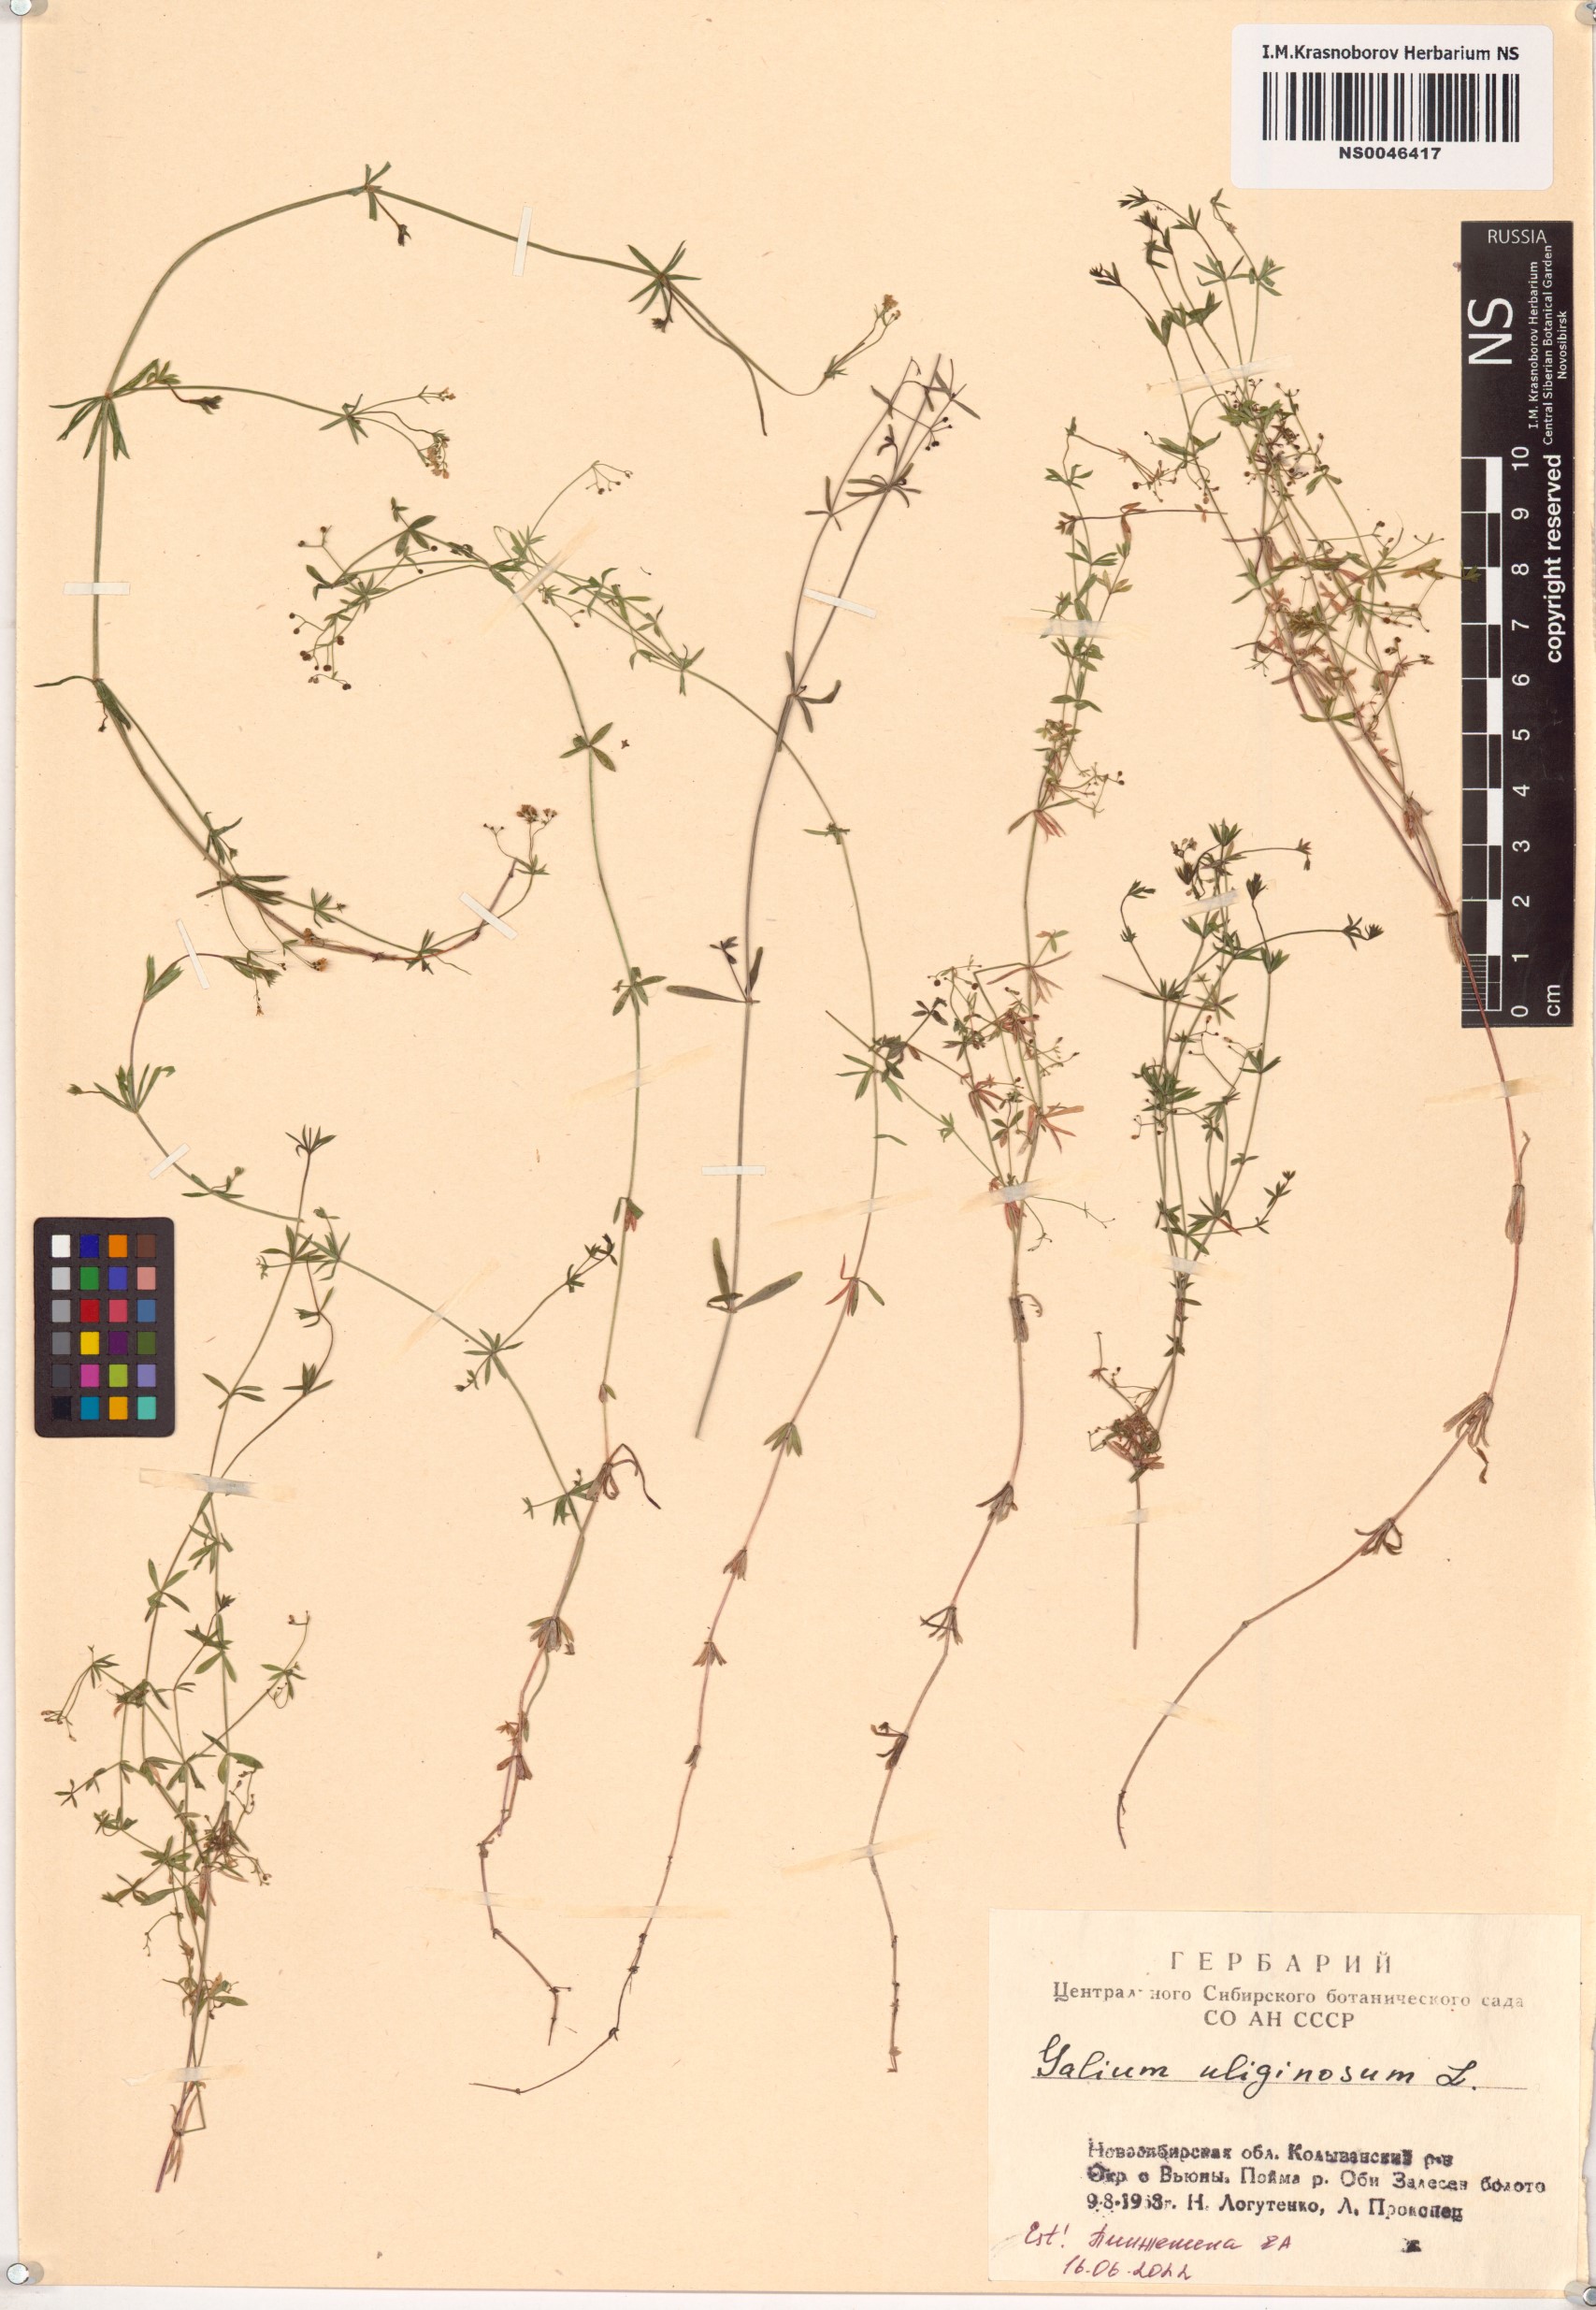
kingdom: Plantae
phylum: Tracheophyta
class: Magnoliopsida
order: Gentianales
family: Rubiaceae
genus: Galium
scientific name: Galium uliginosum
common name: Fen bedstraw
